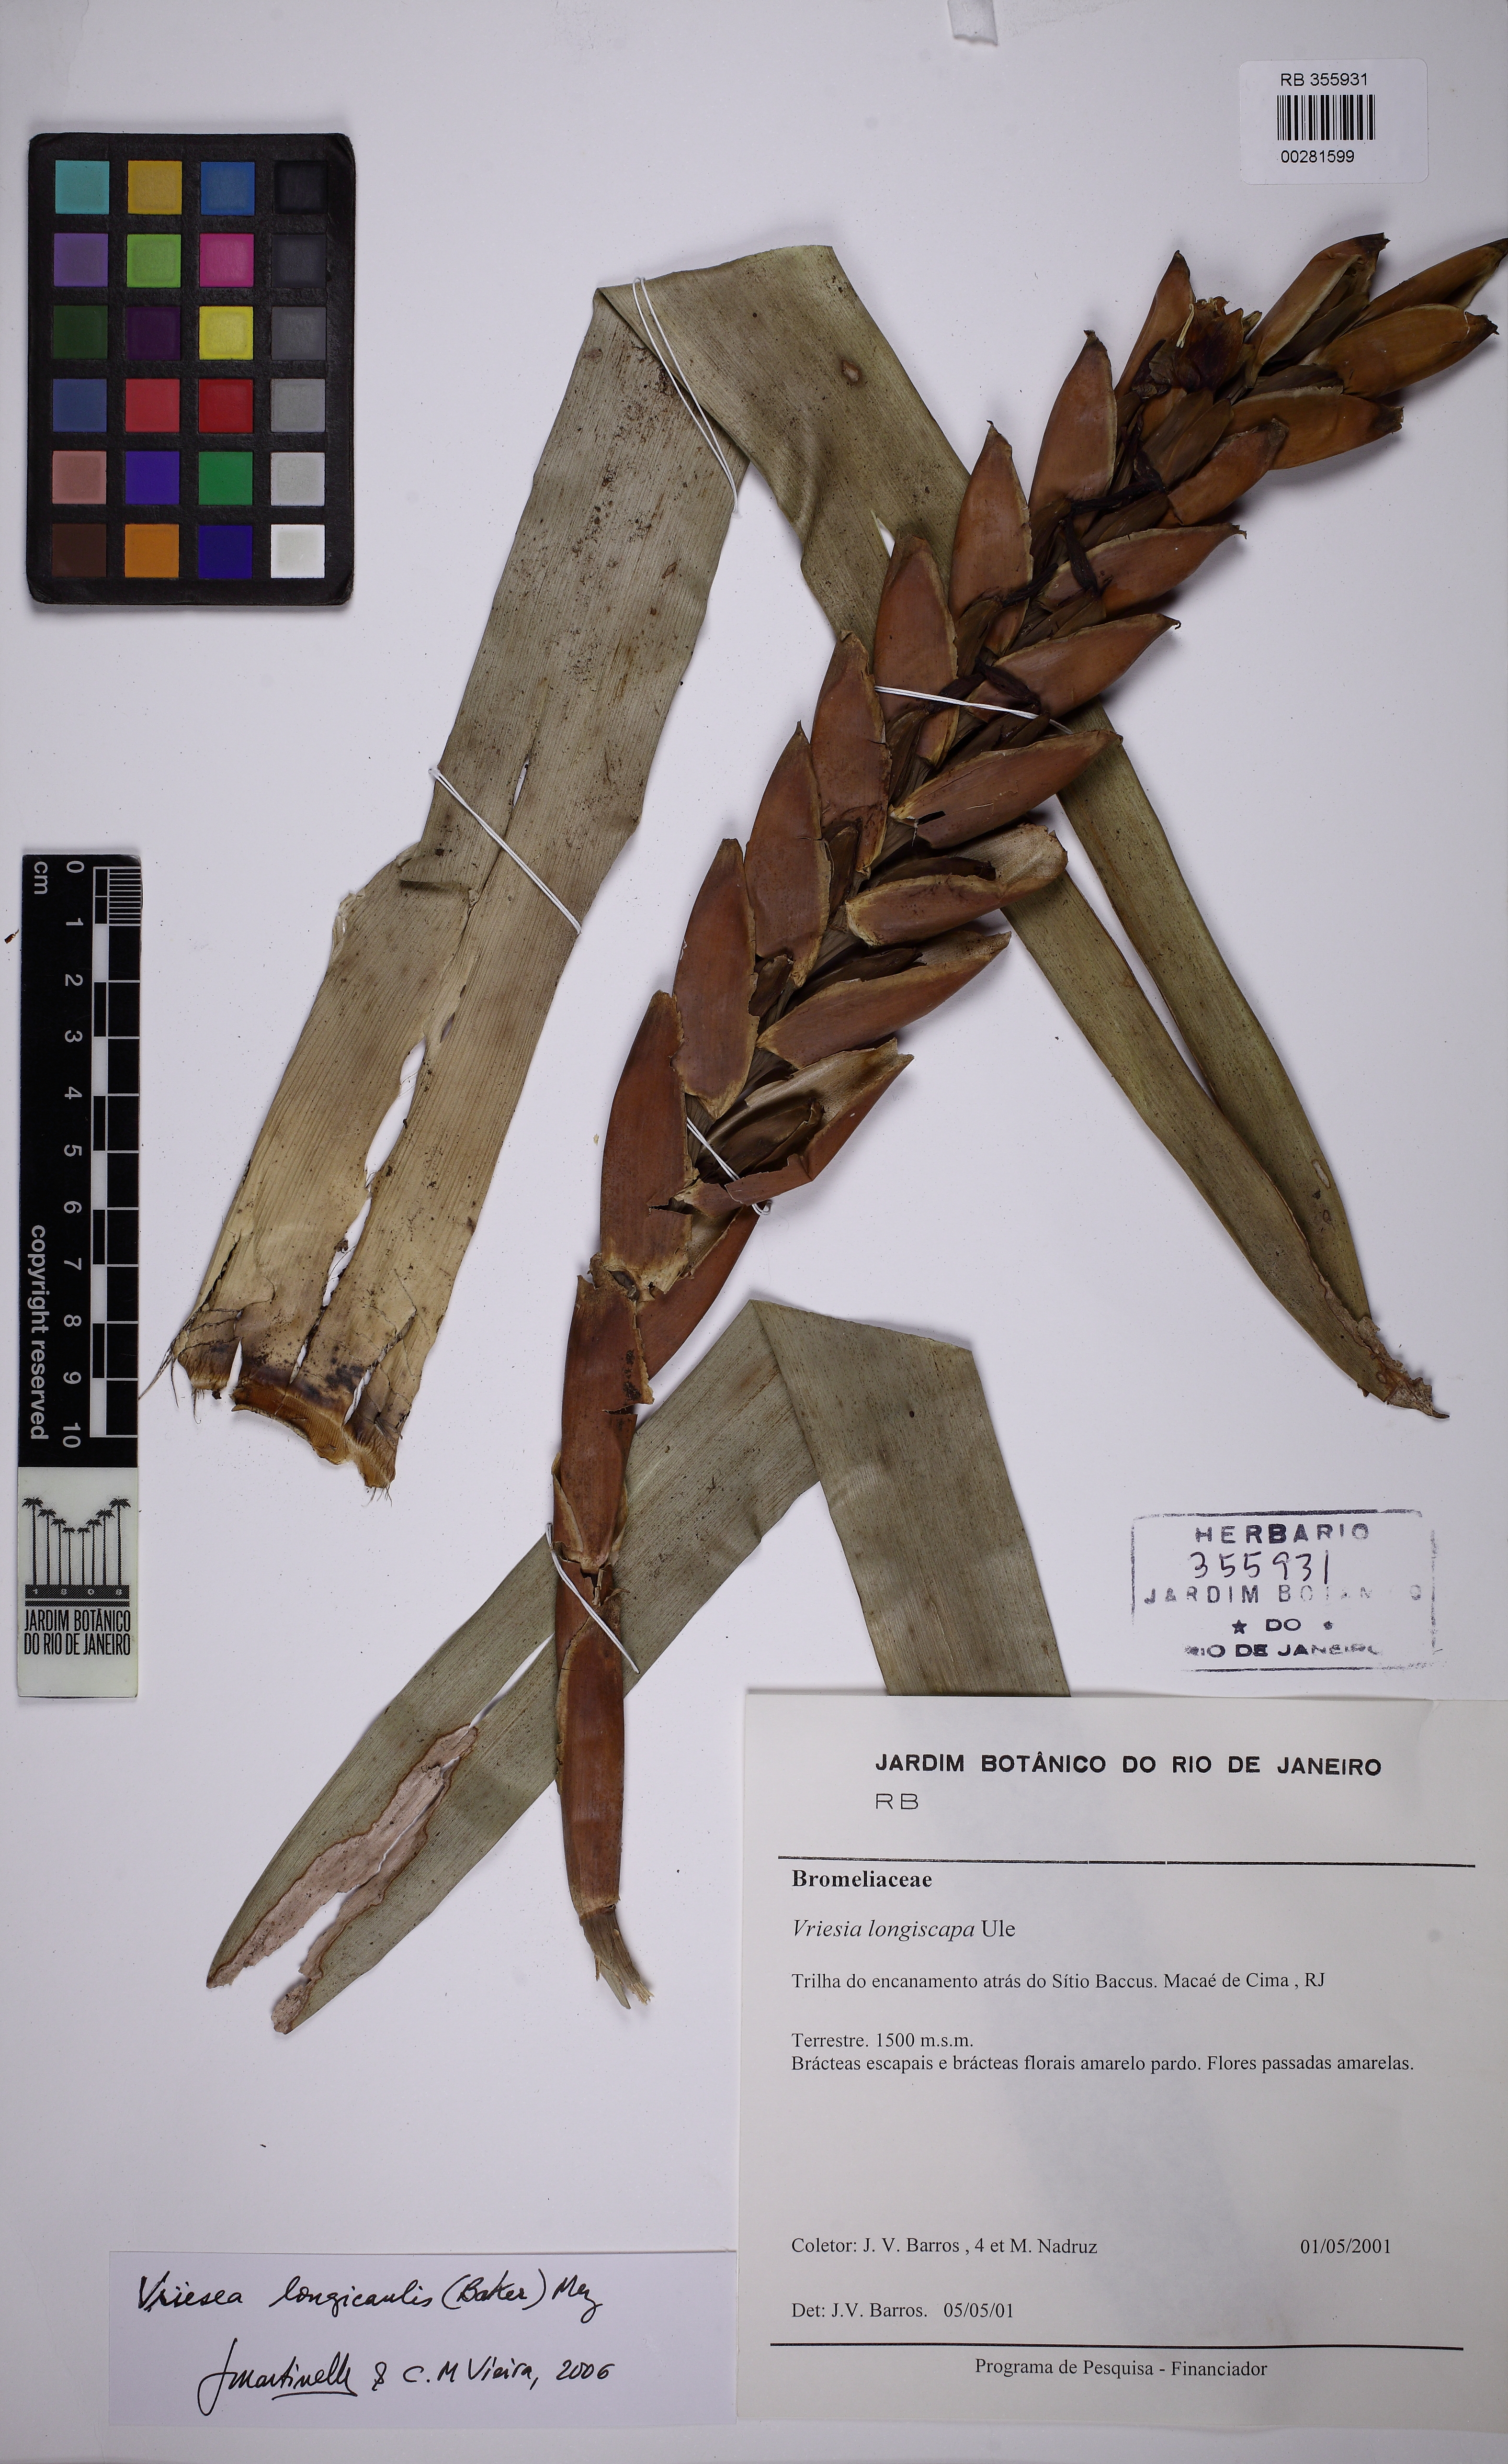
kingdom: Plantae
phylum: Tracheophyta
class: Liliopsida
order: Poales
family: Bromeliaceae
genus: Vriesea
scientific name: Vriesea longicaulis
